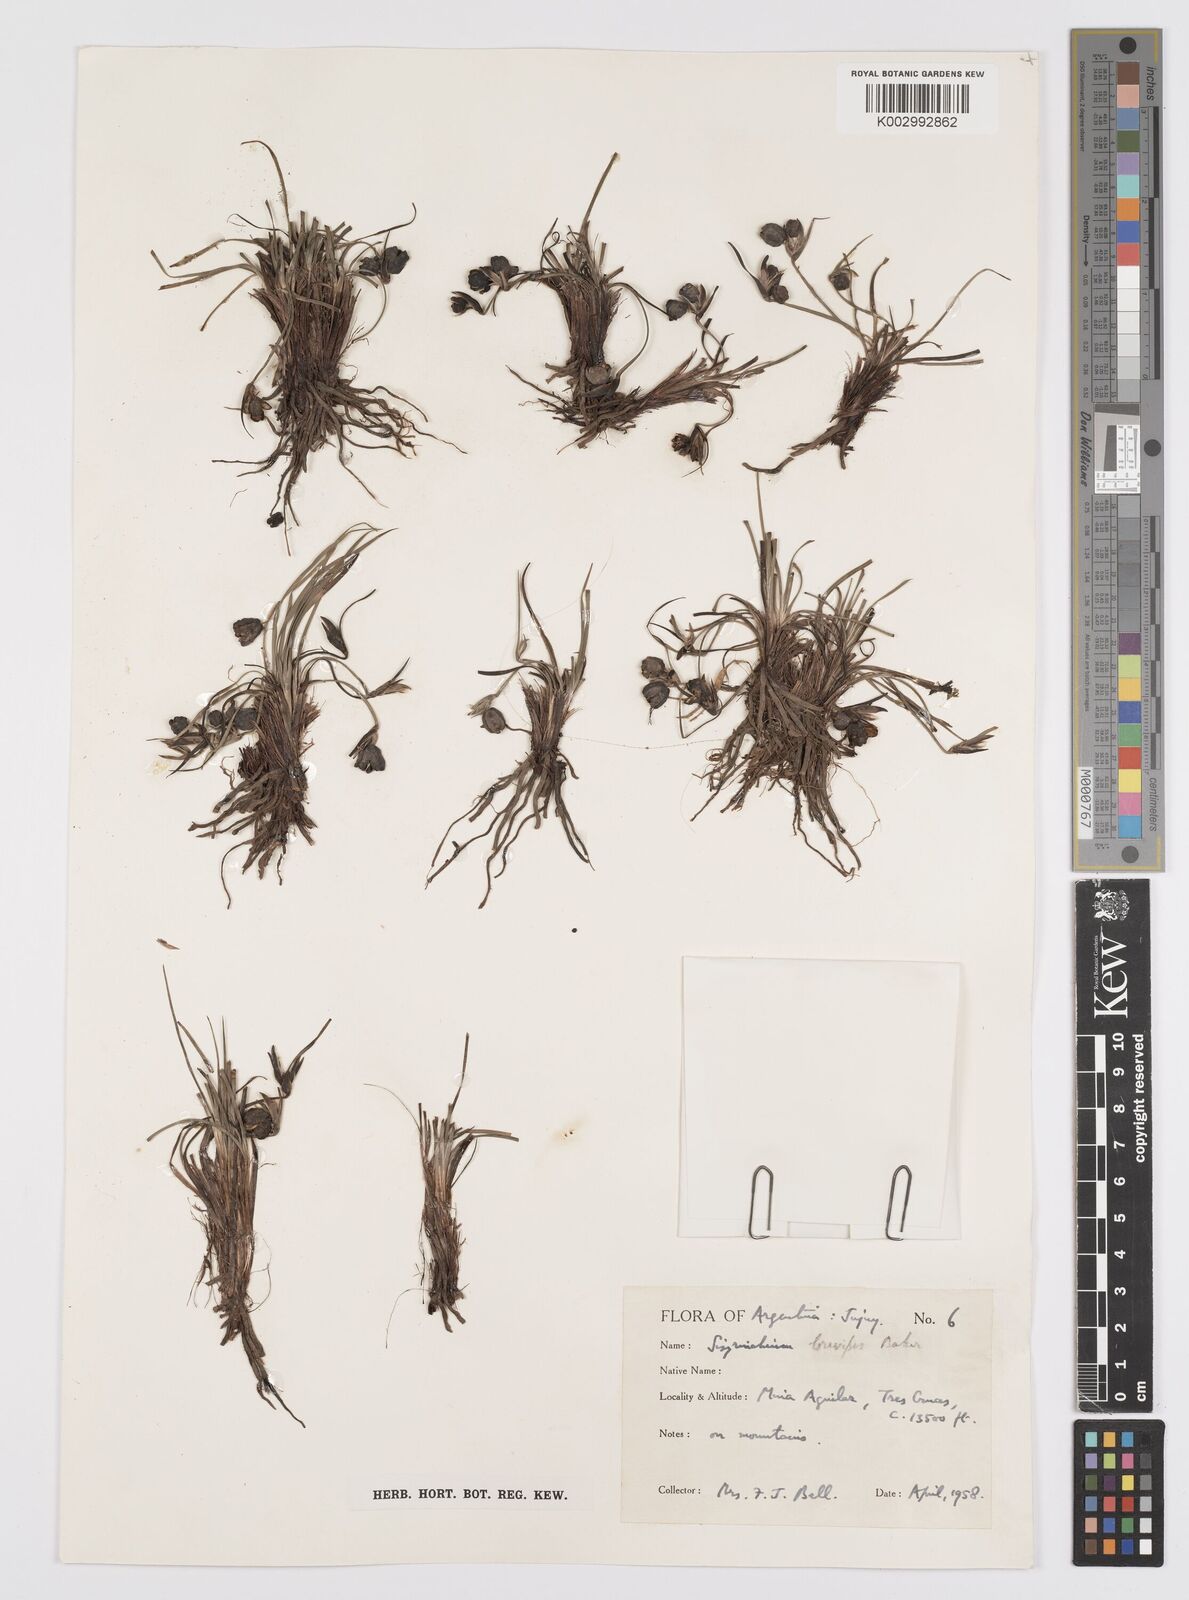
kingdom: Plantae
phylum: Tracheophyta
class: Liliopsida
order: Asparagales
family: Iridaceae
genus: Sisyrinchium
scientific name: Sisyrinchium brevipes
